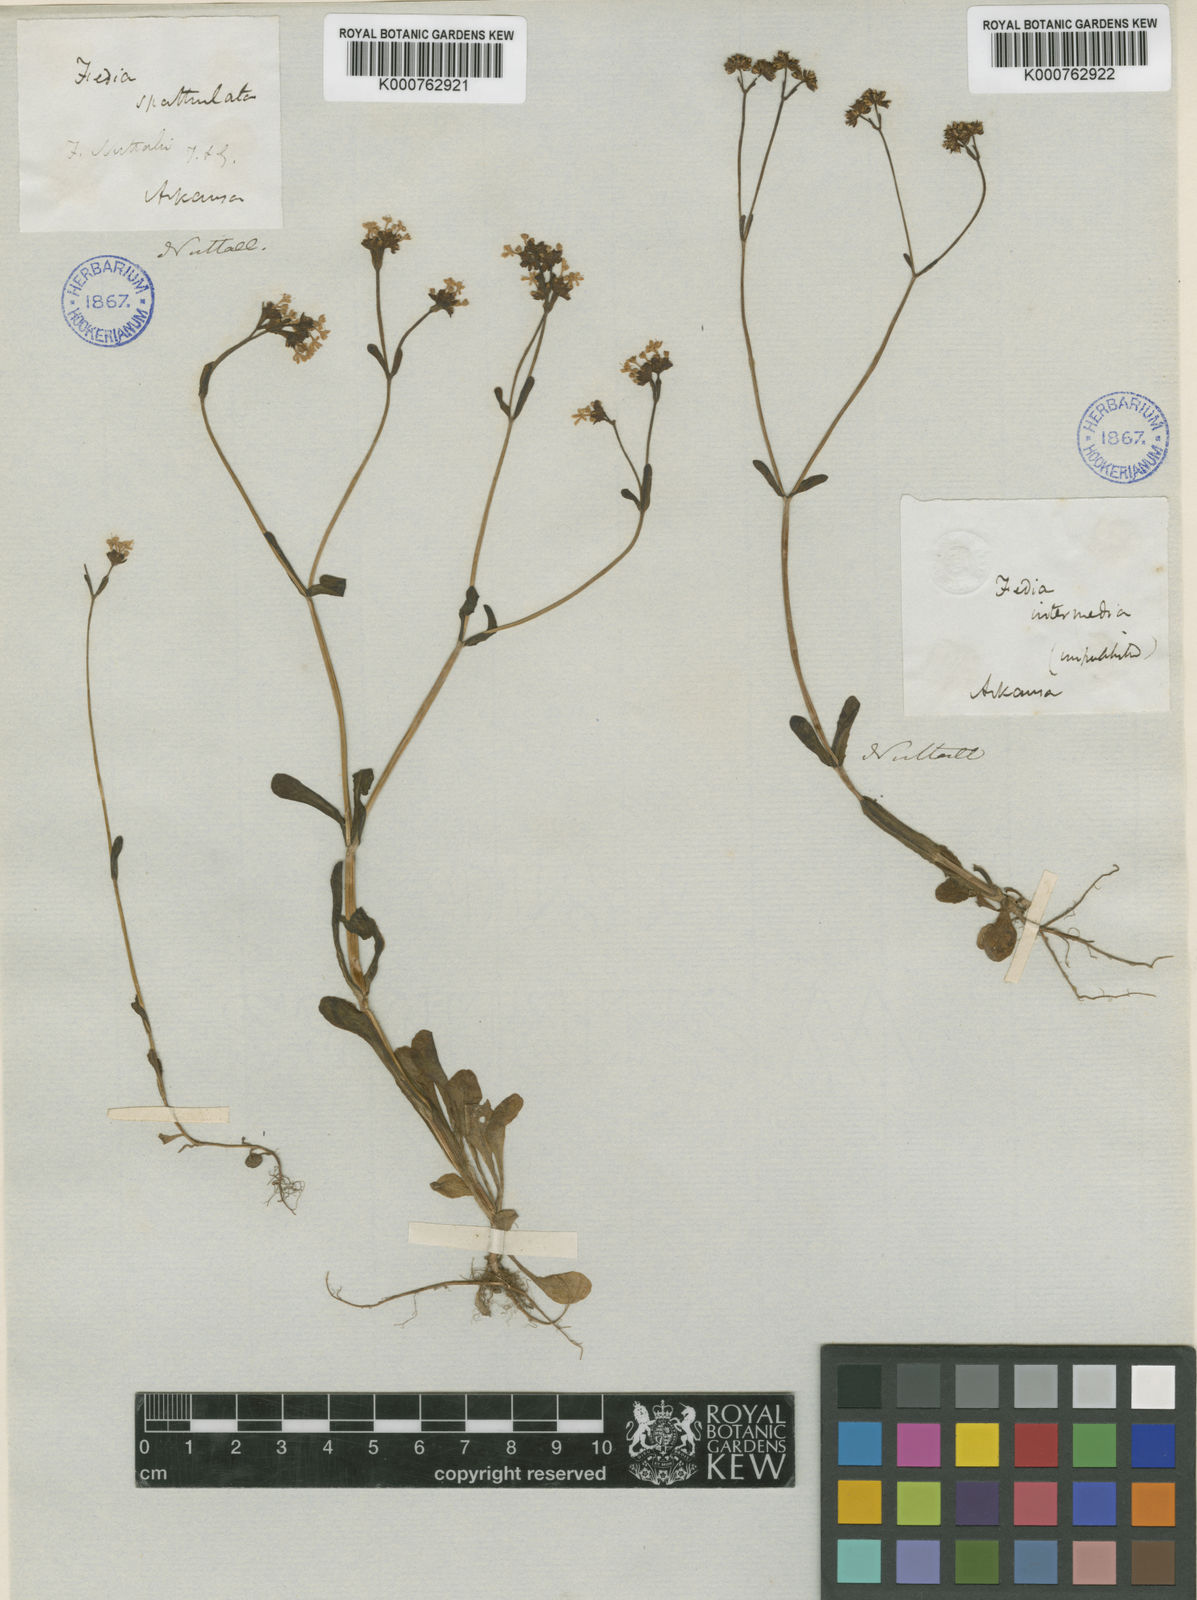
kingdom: Plantae
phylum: Tracheophyta
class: Magnoliopsida
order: Dipsacales
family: Caprifoliaceae
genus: Valerianella
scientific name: Valerianella
